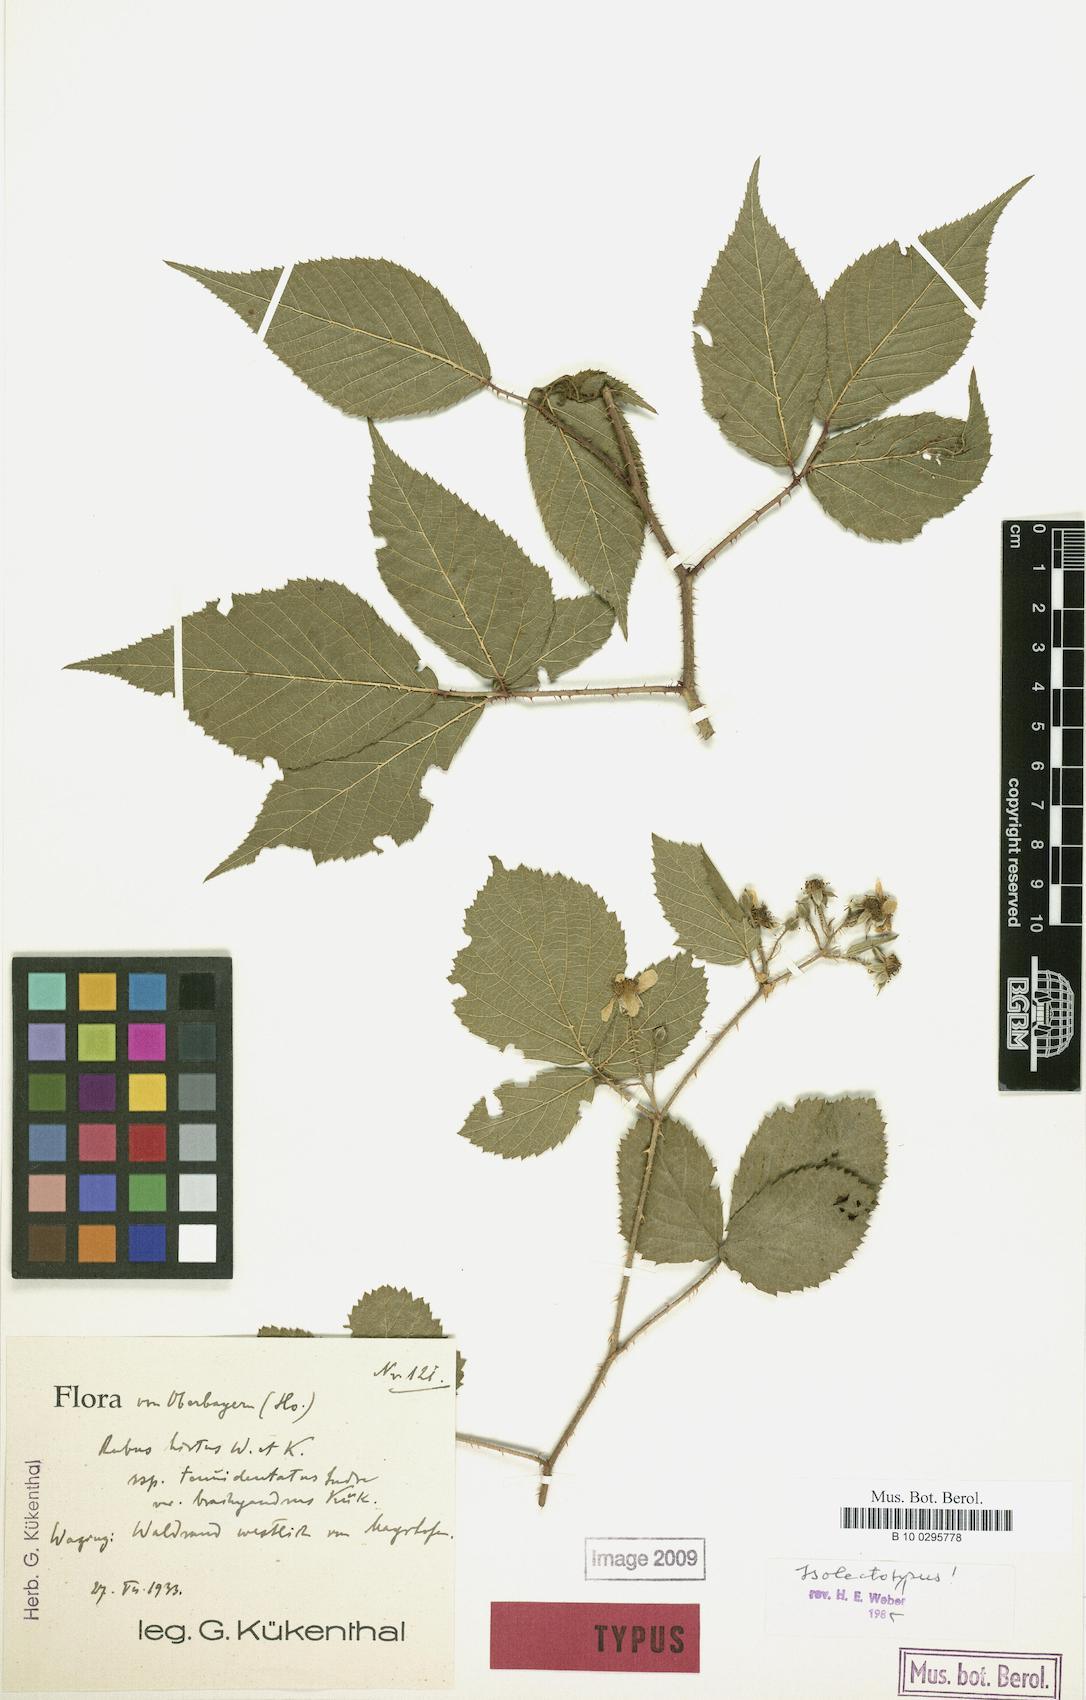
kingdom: Plantae
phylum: Tracheophyta
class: Magnoliopsida
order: Rosales
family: Rosaceae
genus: Rubus
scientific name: Rubus hirtus
